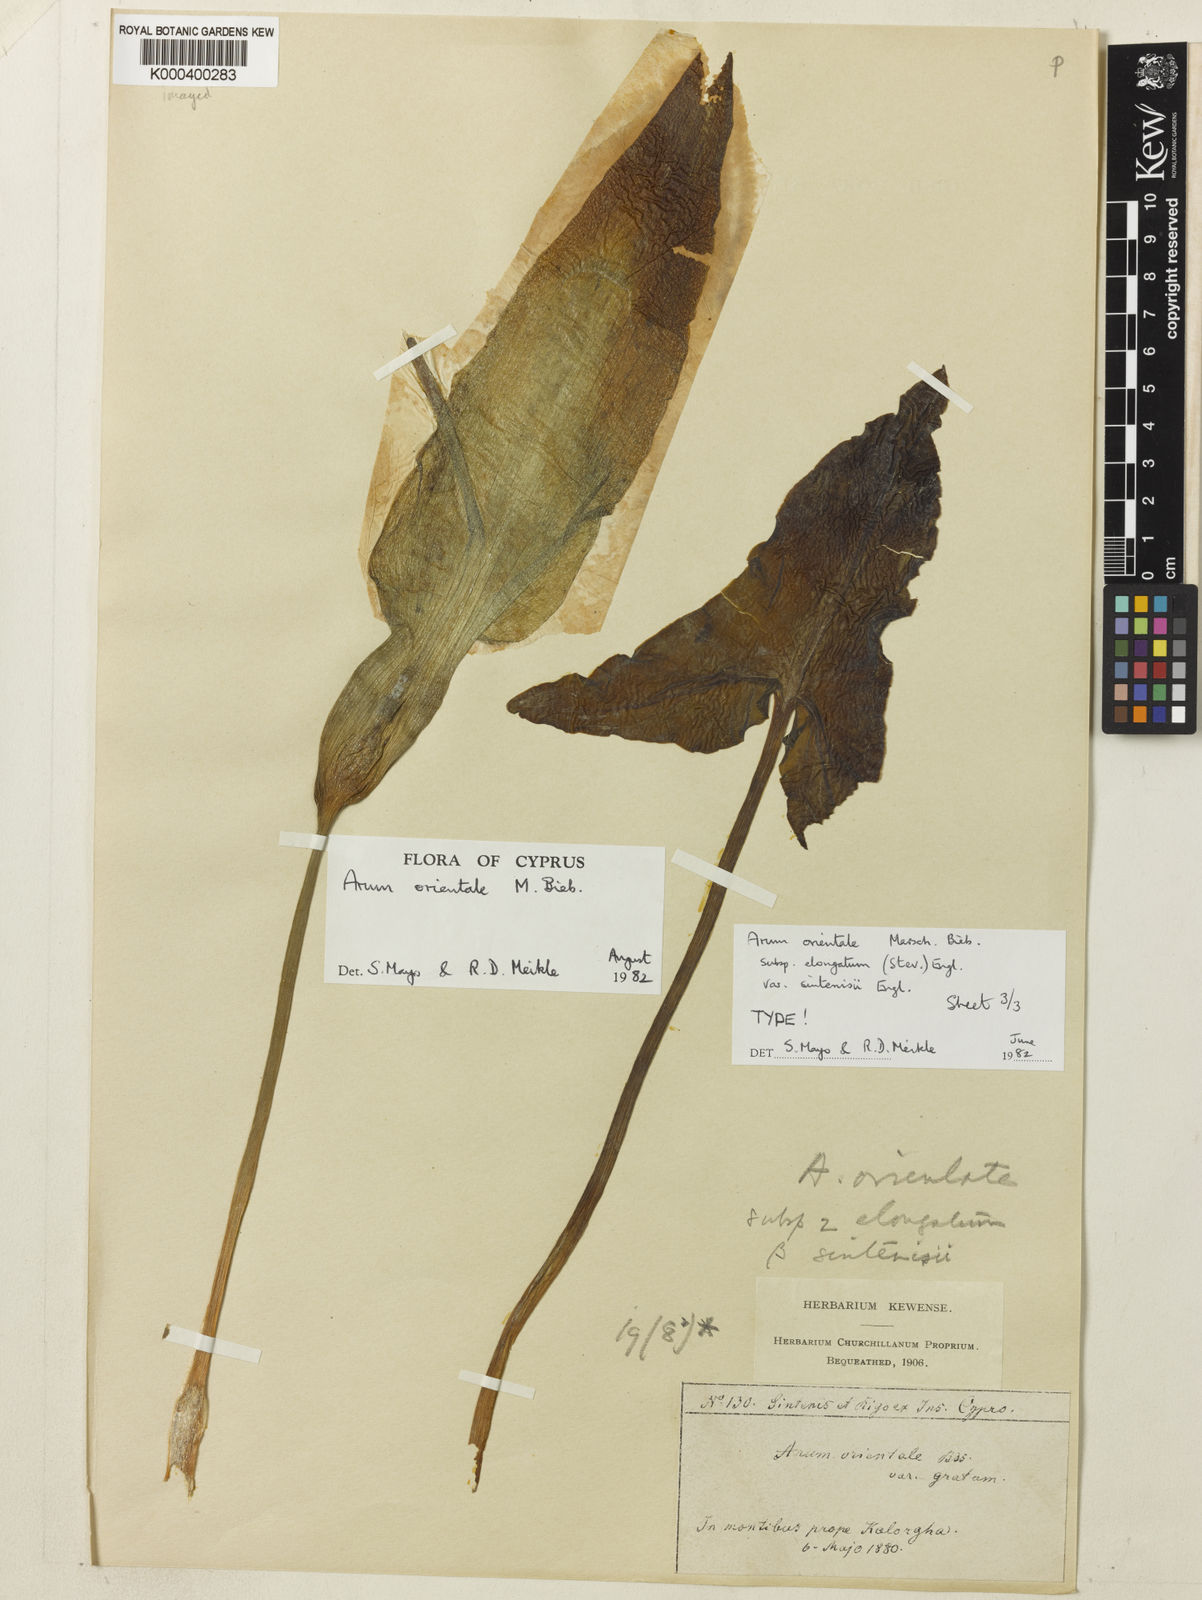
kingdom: Plantae
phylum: Tracheophyta
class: Liliopsida
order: Alismatales
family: Araceae
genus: Arum
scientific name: Arum sintenisii
